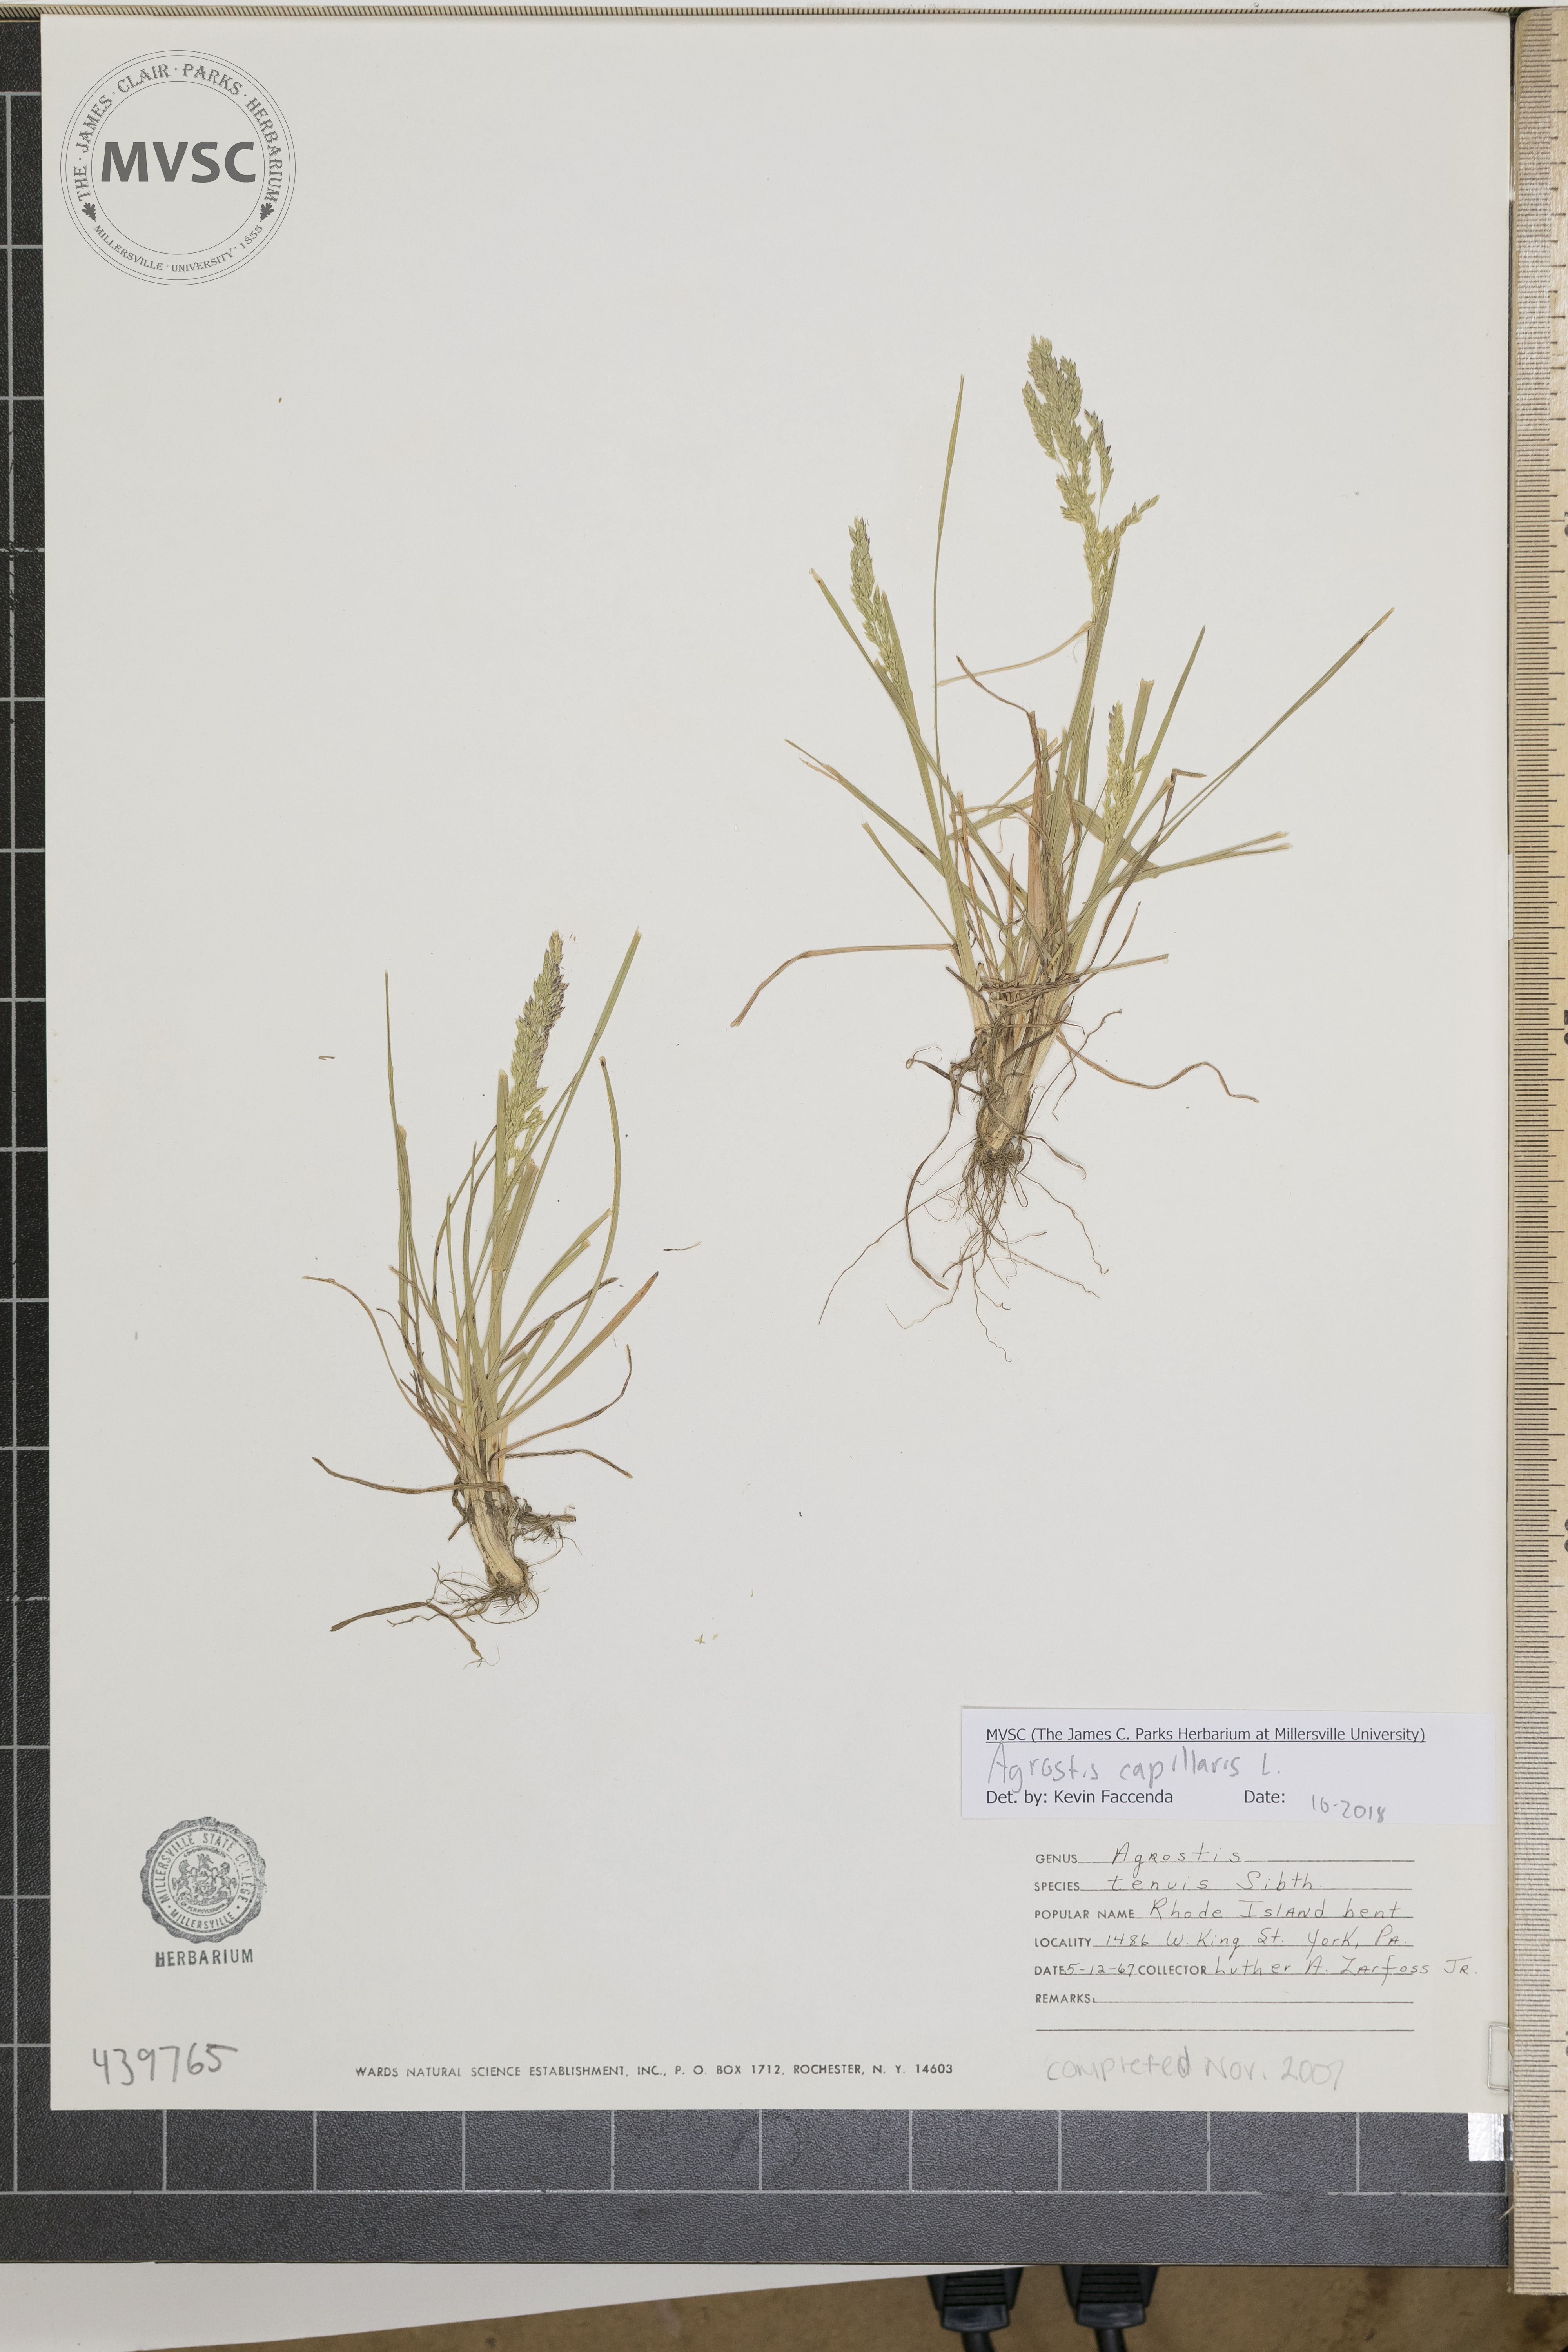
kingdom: Plantae
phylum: Tracheophyta
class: Liliopsida
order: Poales
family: Poaceae
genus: Poa
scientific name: Poa pratensis
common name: Kentucky bluegrass
